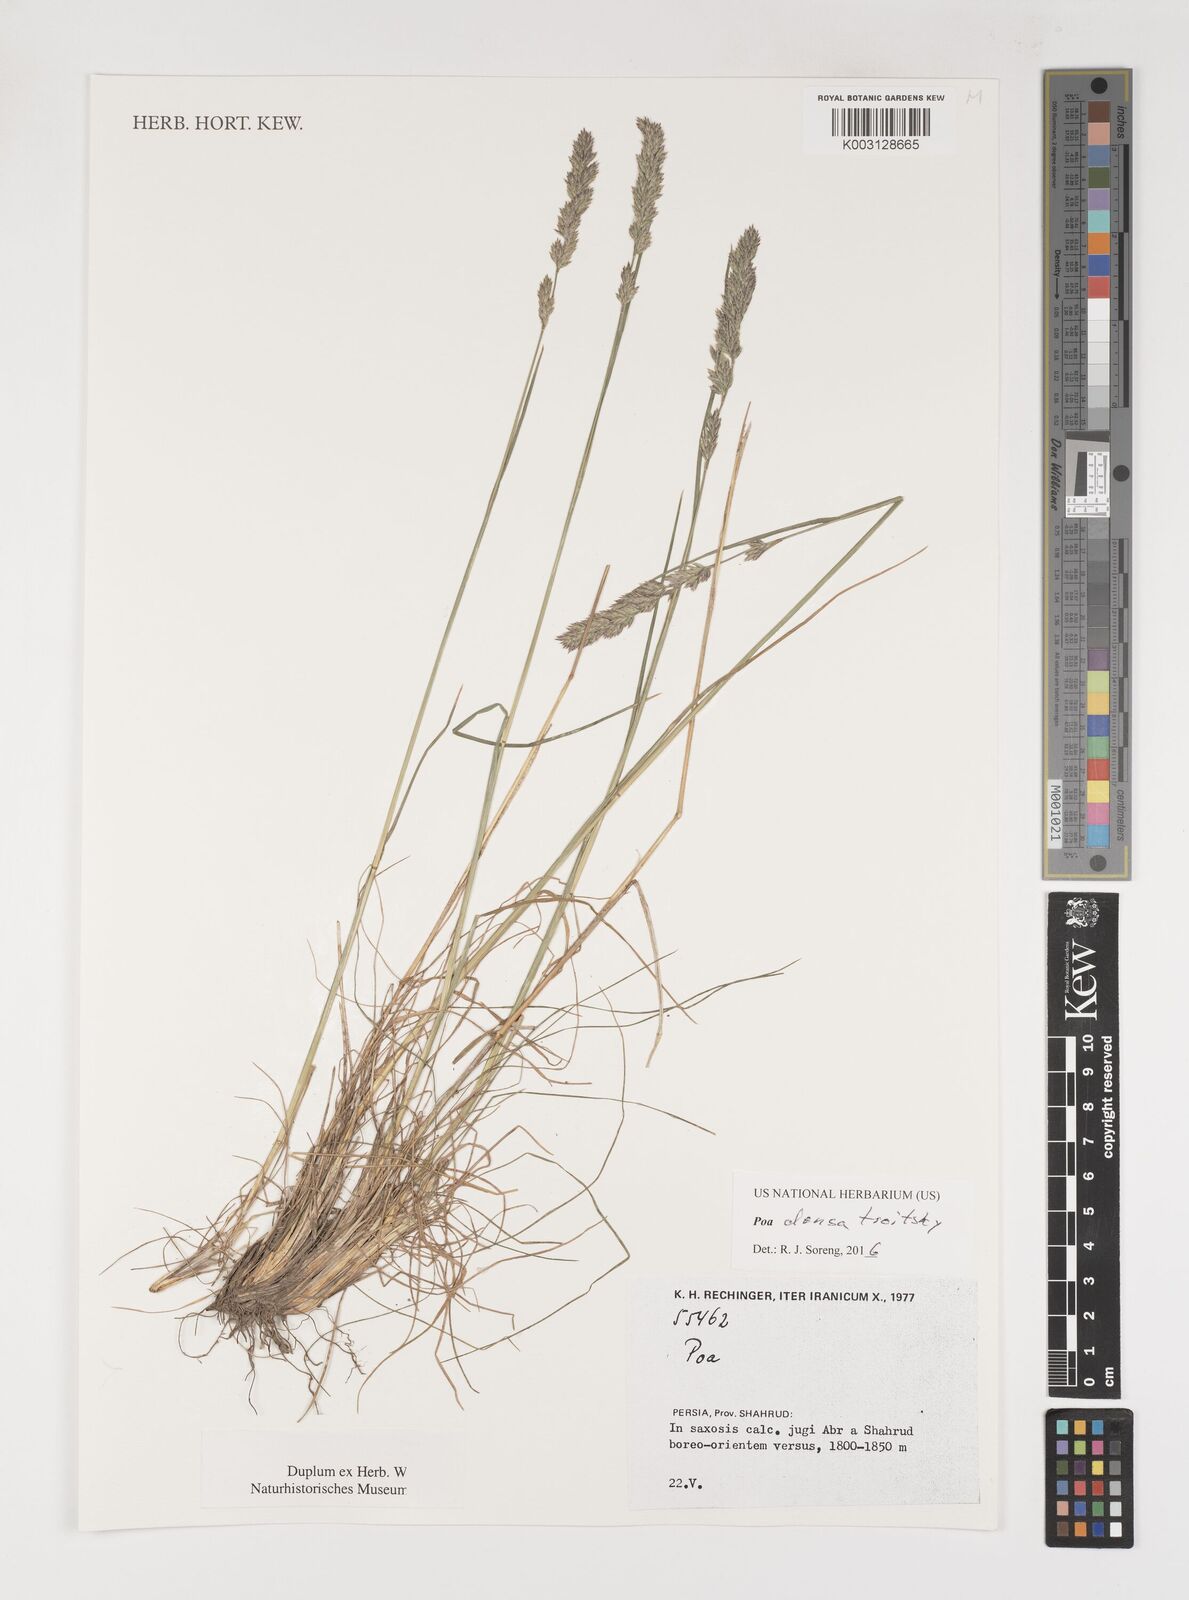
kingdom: Plantae
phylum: Tracheophyta
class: Liliopsida
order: Poales
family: Poaceae
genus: Poa
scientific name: Poa densa
